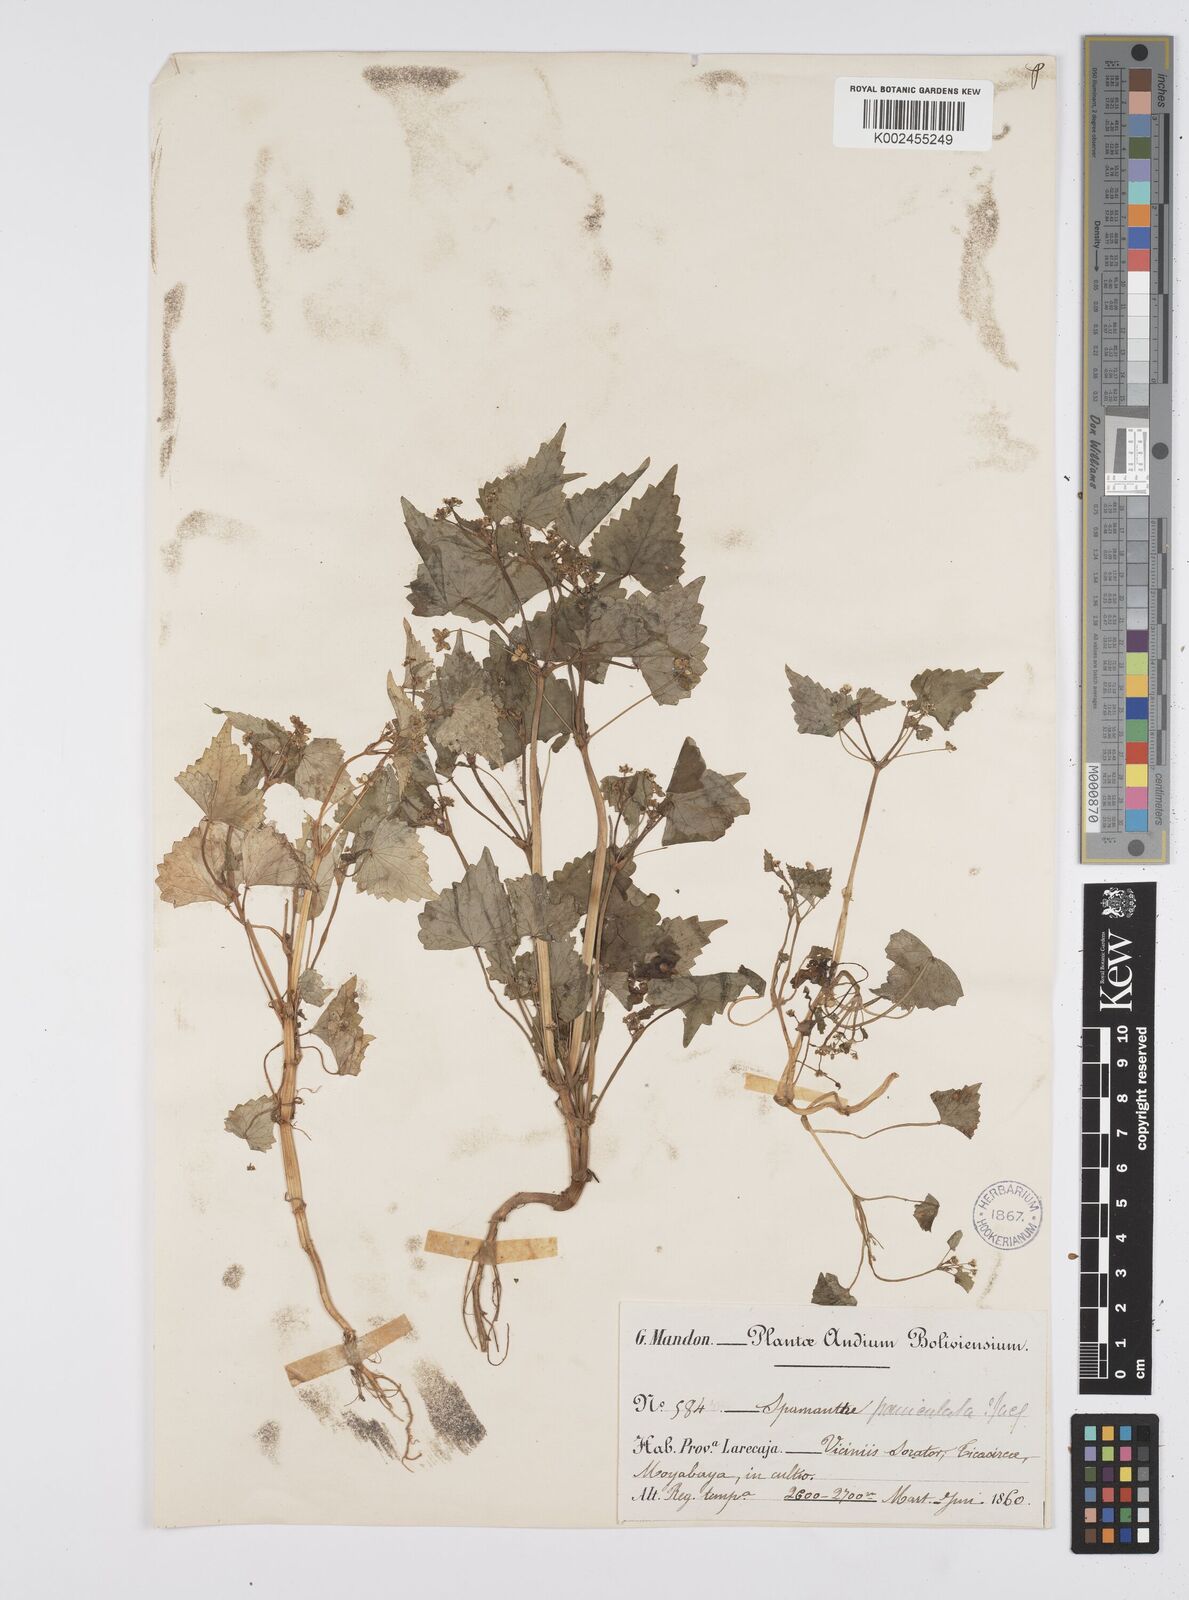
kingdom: Plantae
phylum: Tracheophyta
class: Magnoliopsida
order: Apiales
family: Apiaceae
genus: Azorella
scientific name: Azorella
